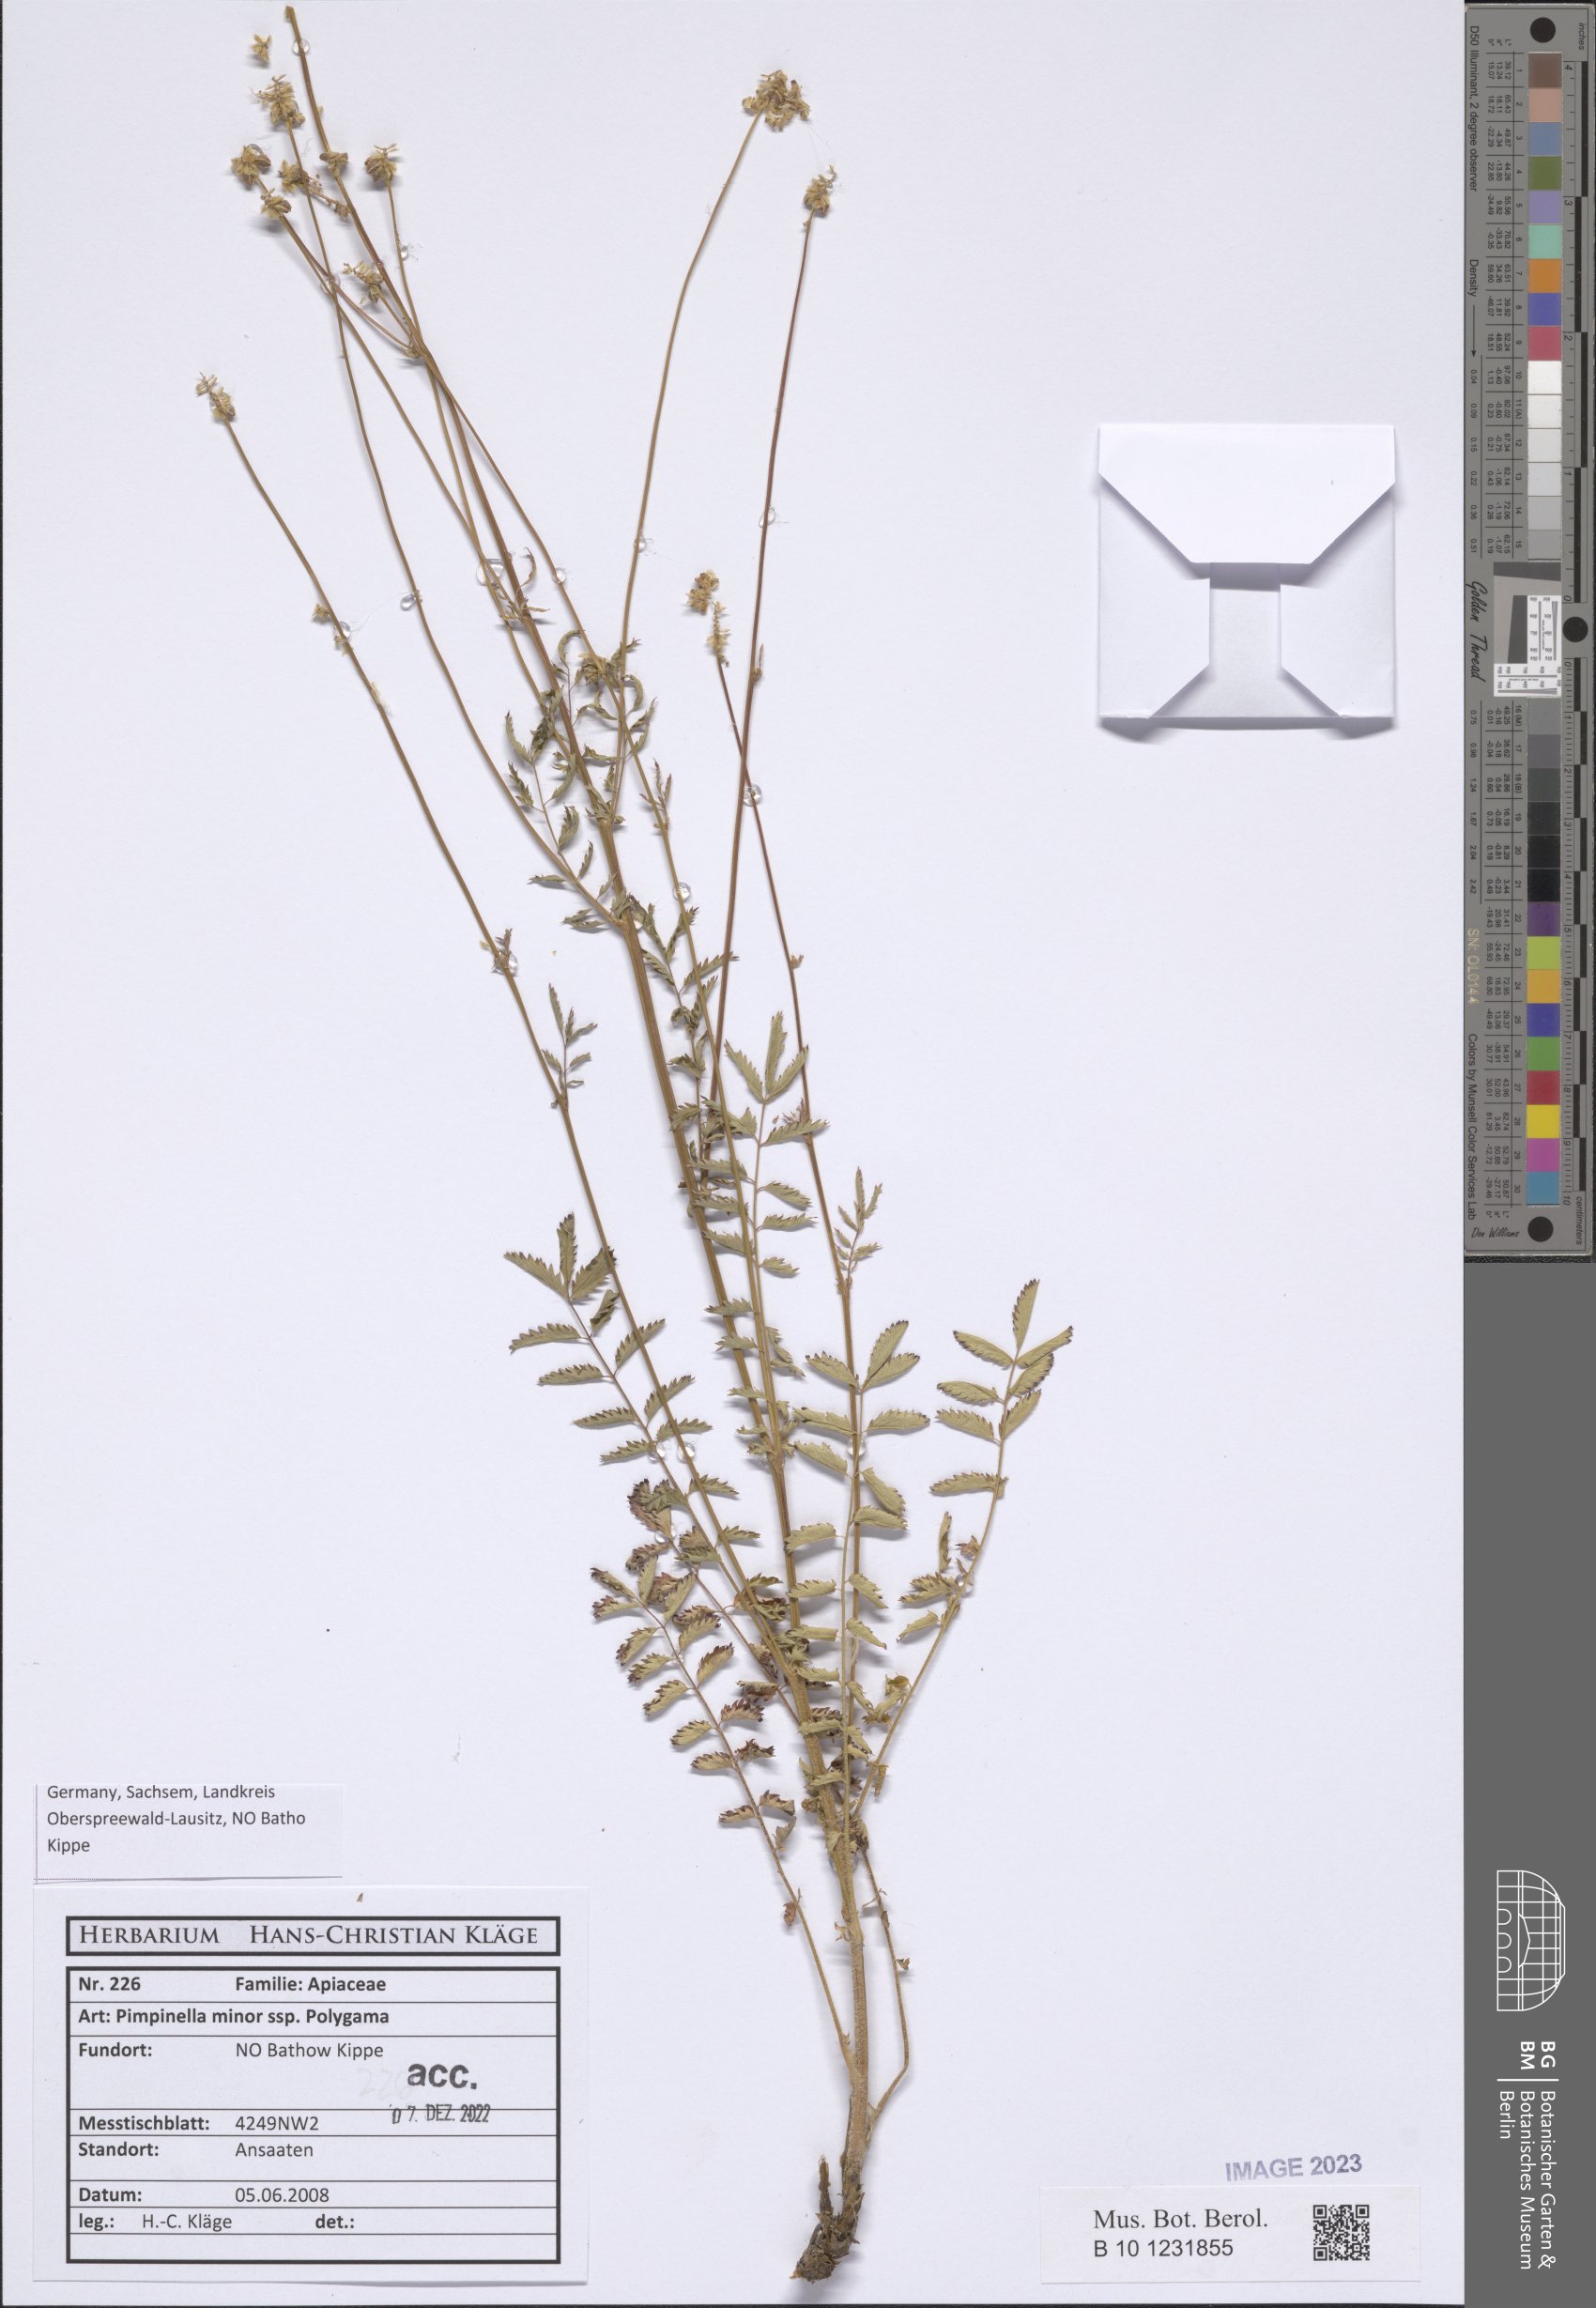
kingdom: Plantae
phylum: Tracheophyta
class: Magnoliopsida
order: Apiales
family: Apiaceae
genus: Pimpinella
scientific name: Pimpinella
